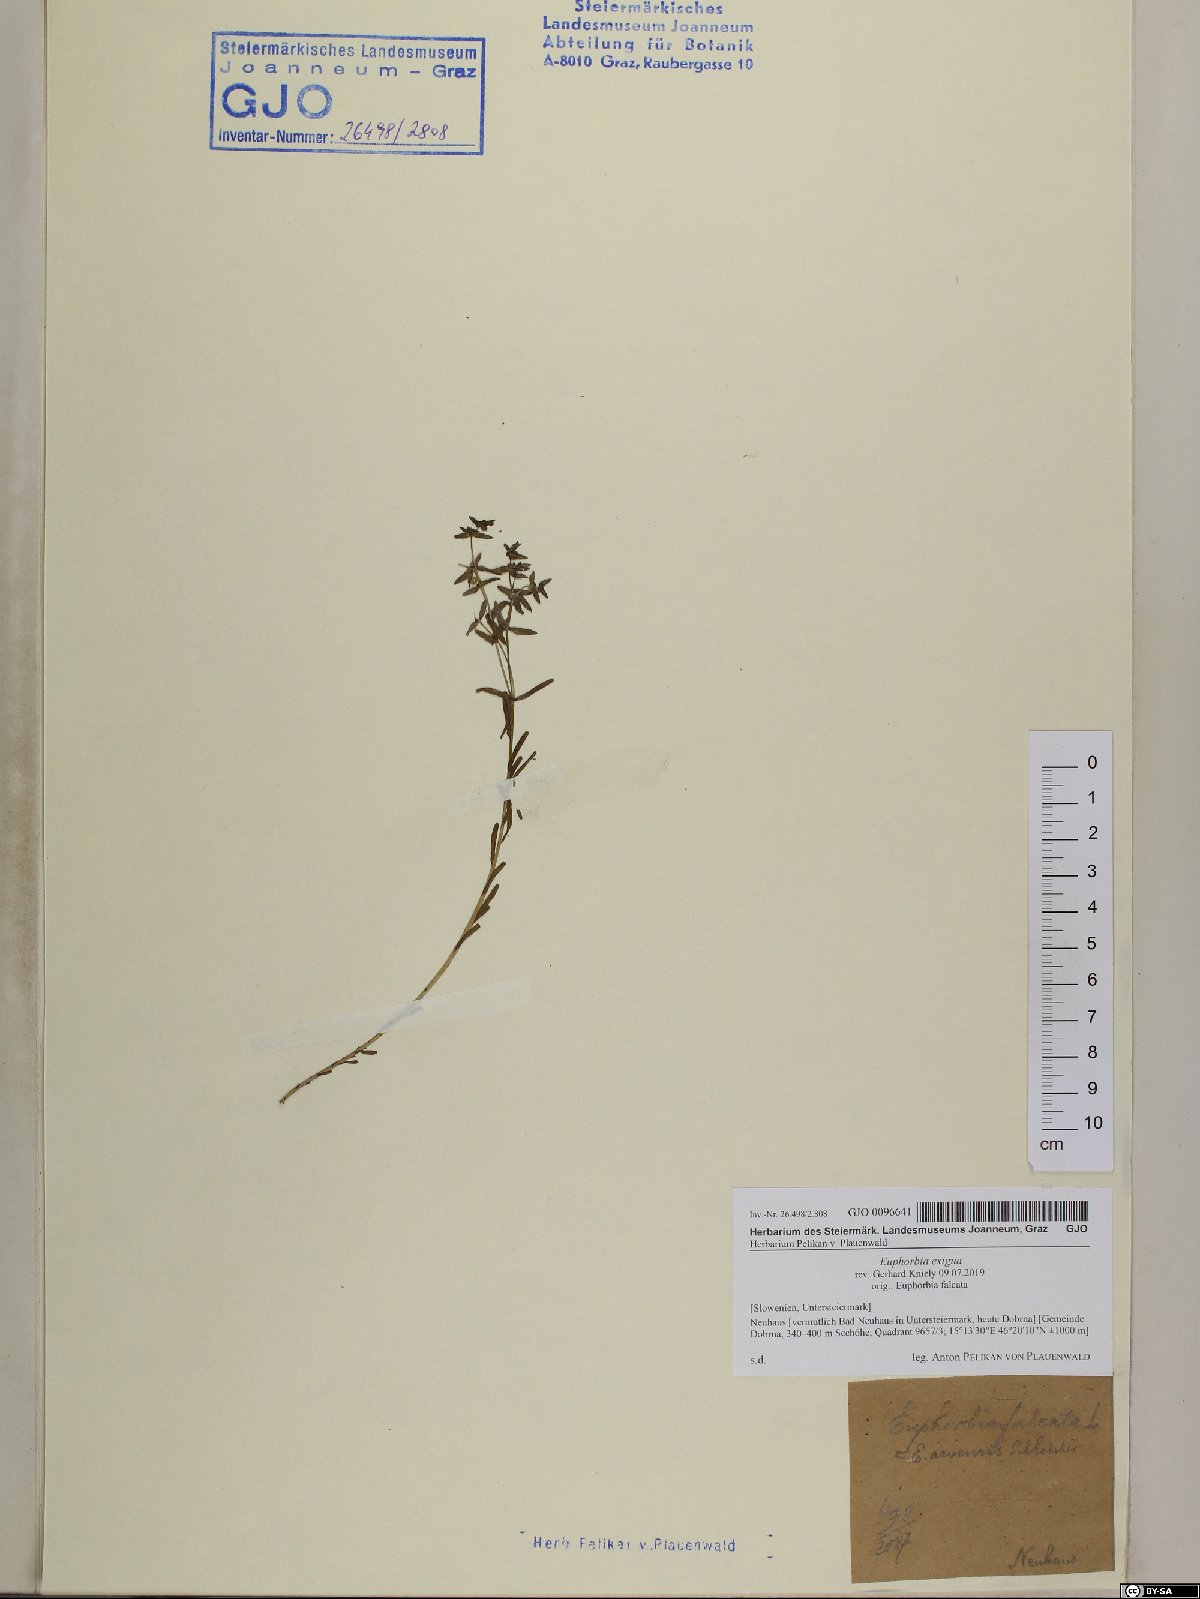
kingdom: Plantae
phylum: Tracheophyta
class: Magnoliopsida
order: Malpighiales
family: Euphorbiaceae
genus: Euphorbia
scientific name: Euphorbia exigua
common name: Dwarf spurge
